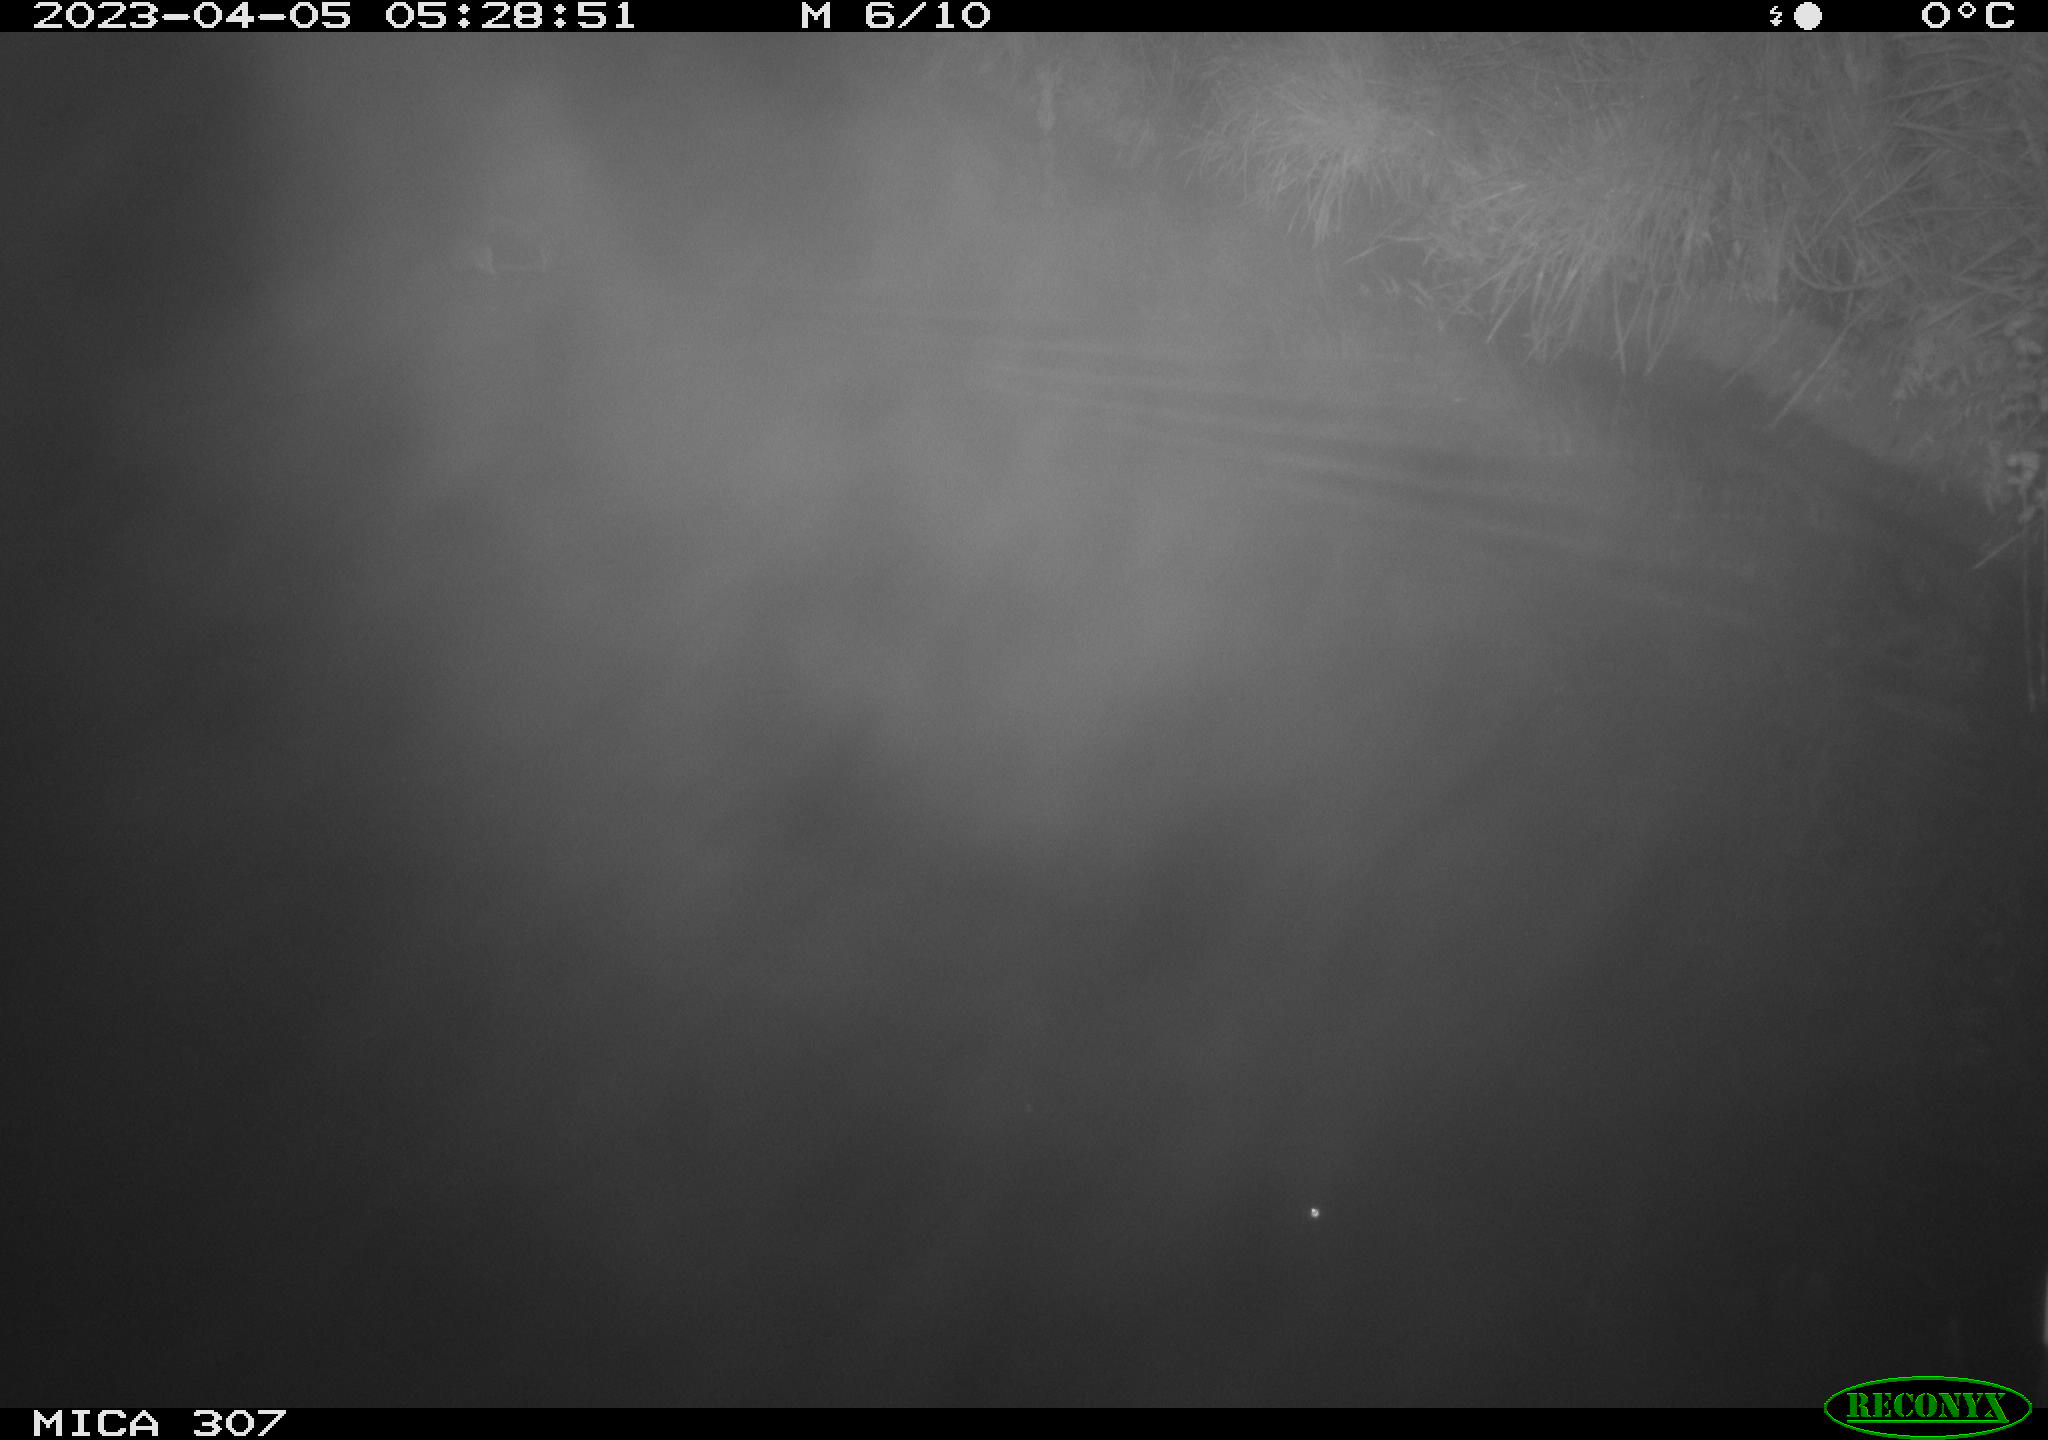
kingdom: Animalia
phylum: Chordata
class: Aves
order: Anseriformes
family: Anatidae
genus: Anas
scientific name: Anas
